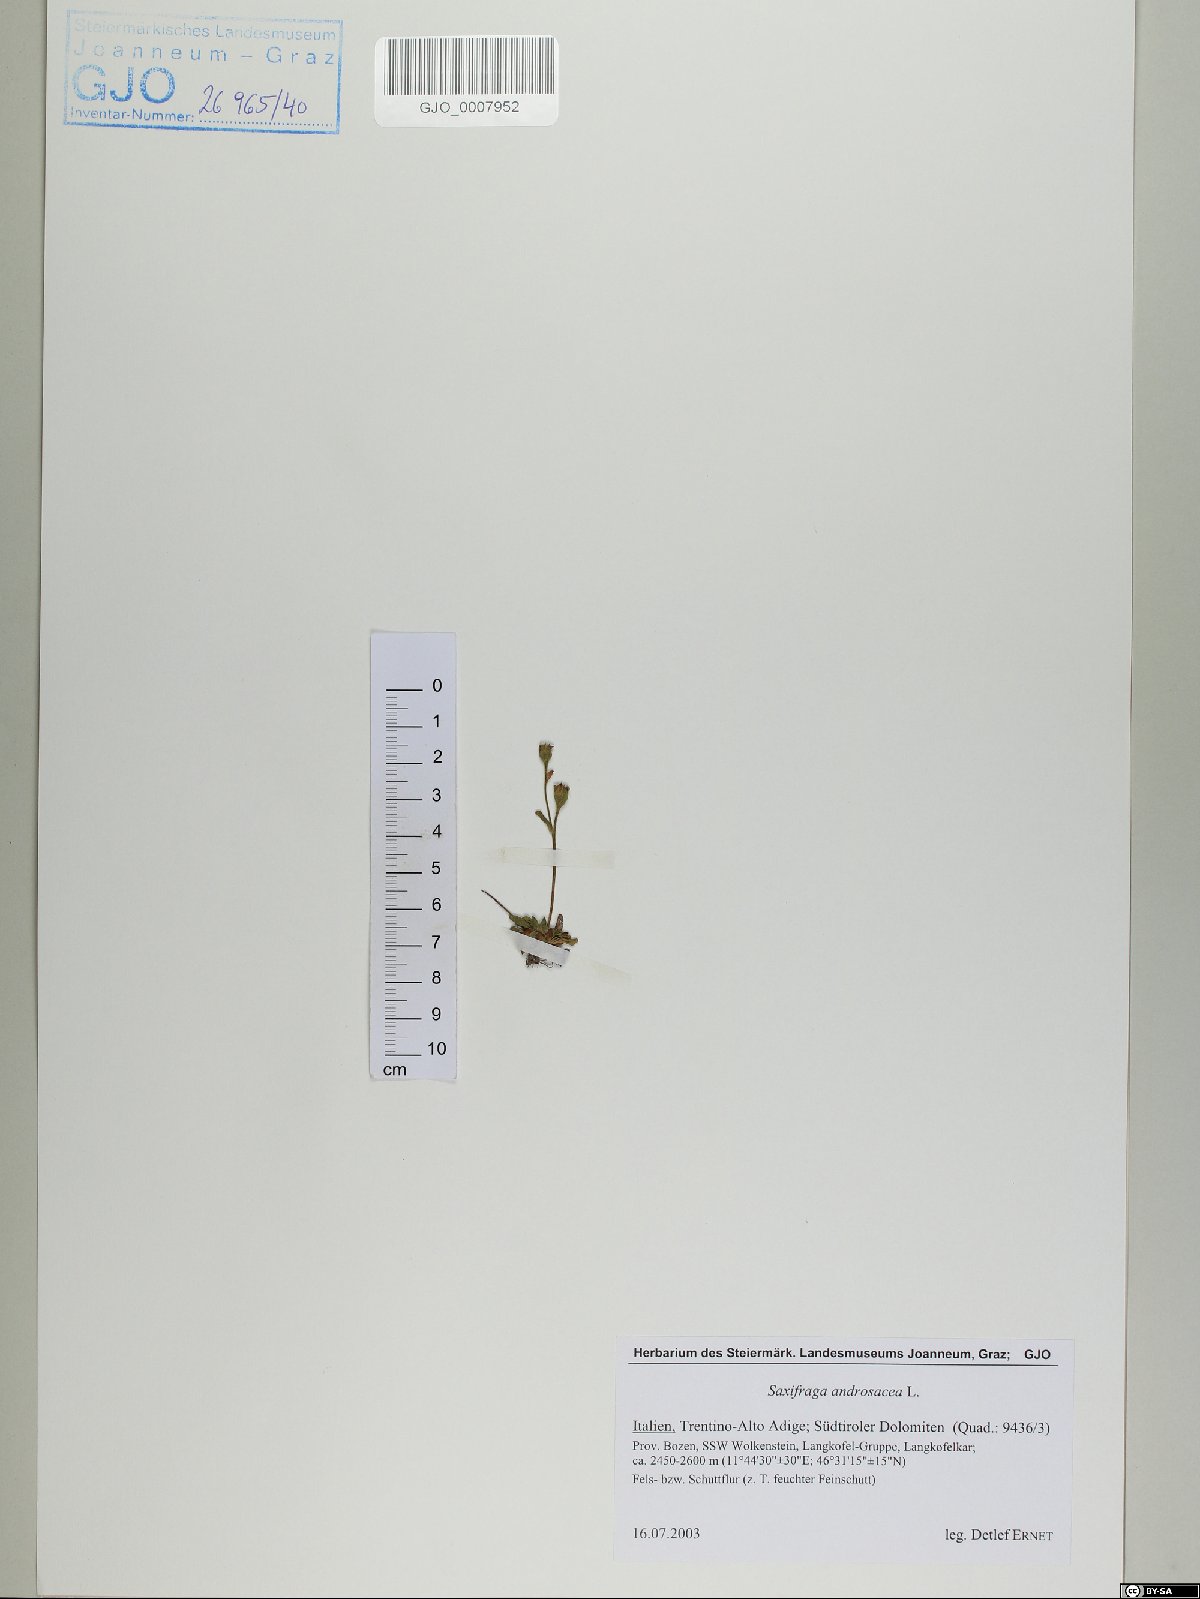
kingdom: Plantae
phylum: Tracheophyta
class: Magnoliopsida
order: Saxifragales
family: Saxifragaceae
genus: Saxifraga
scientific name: Saxifraga androsacea
